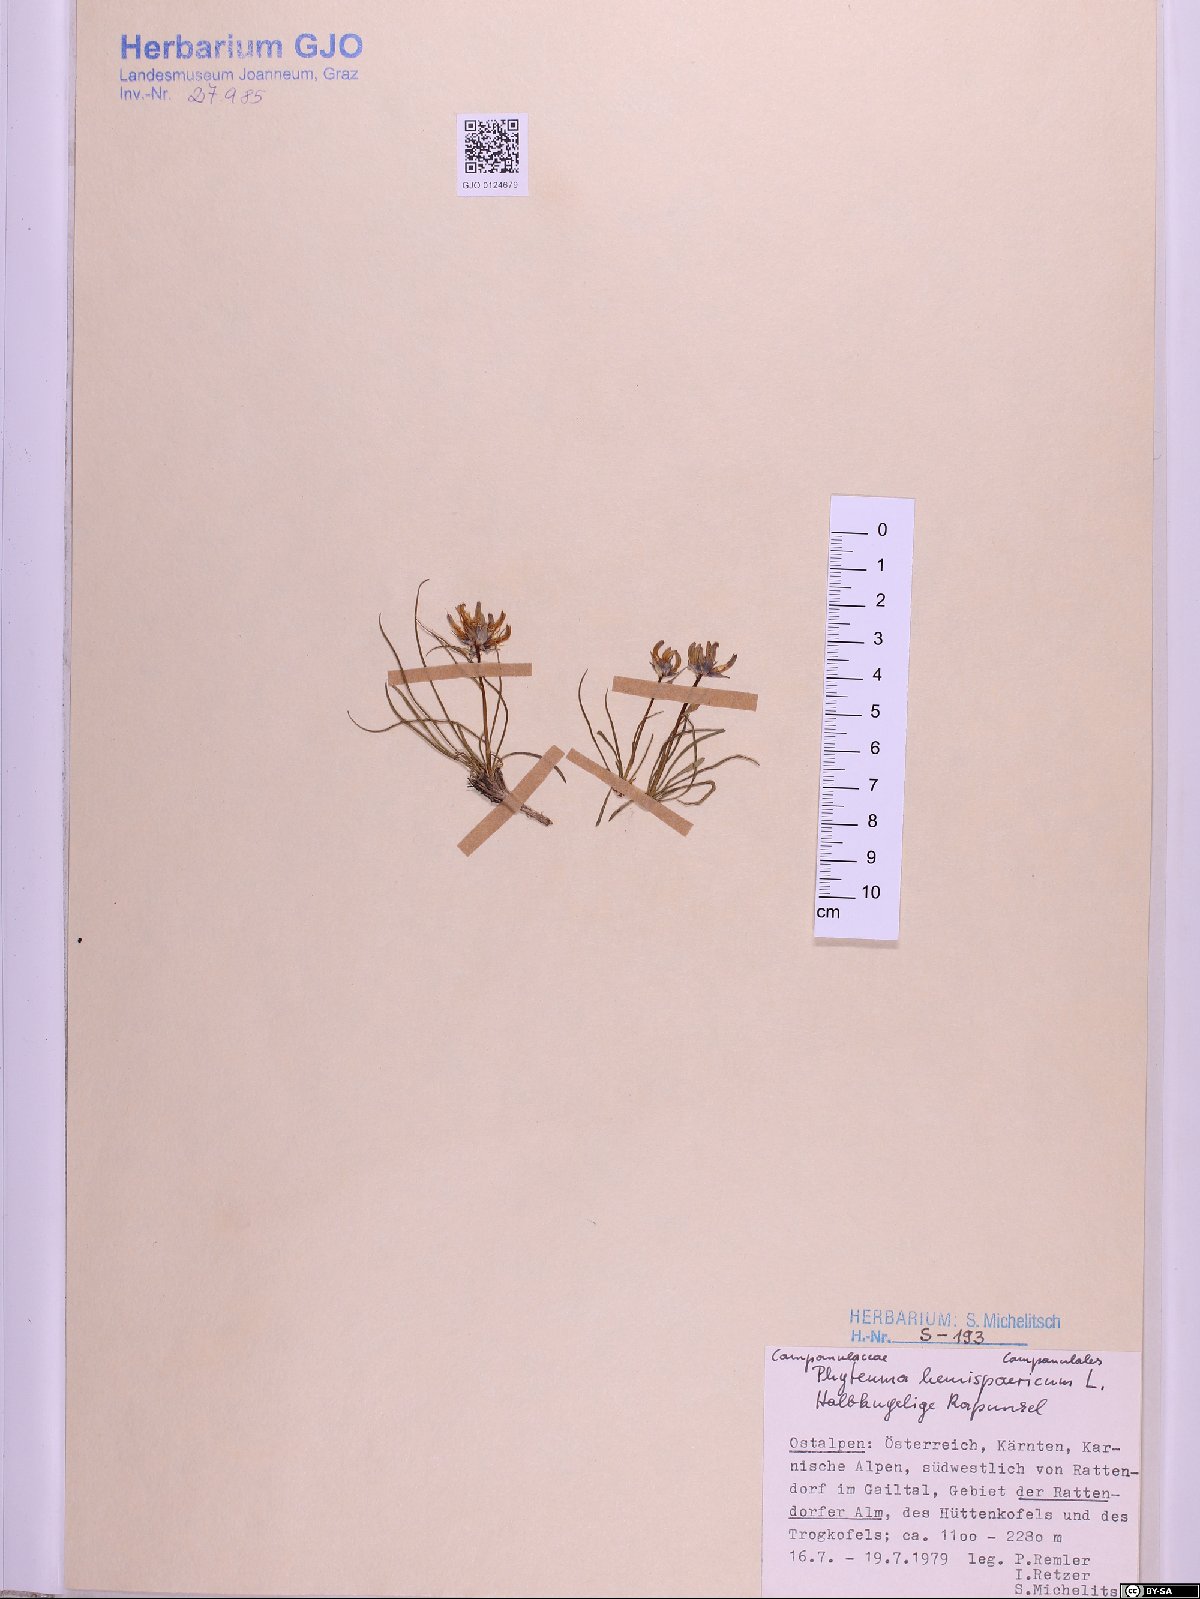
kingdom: Plantae
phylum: Tracheophyta
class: Magnoliopsida
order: Asterales
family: Campanulaceae
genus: Phyteuma
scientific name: Phyteuma hemisphaericum
